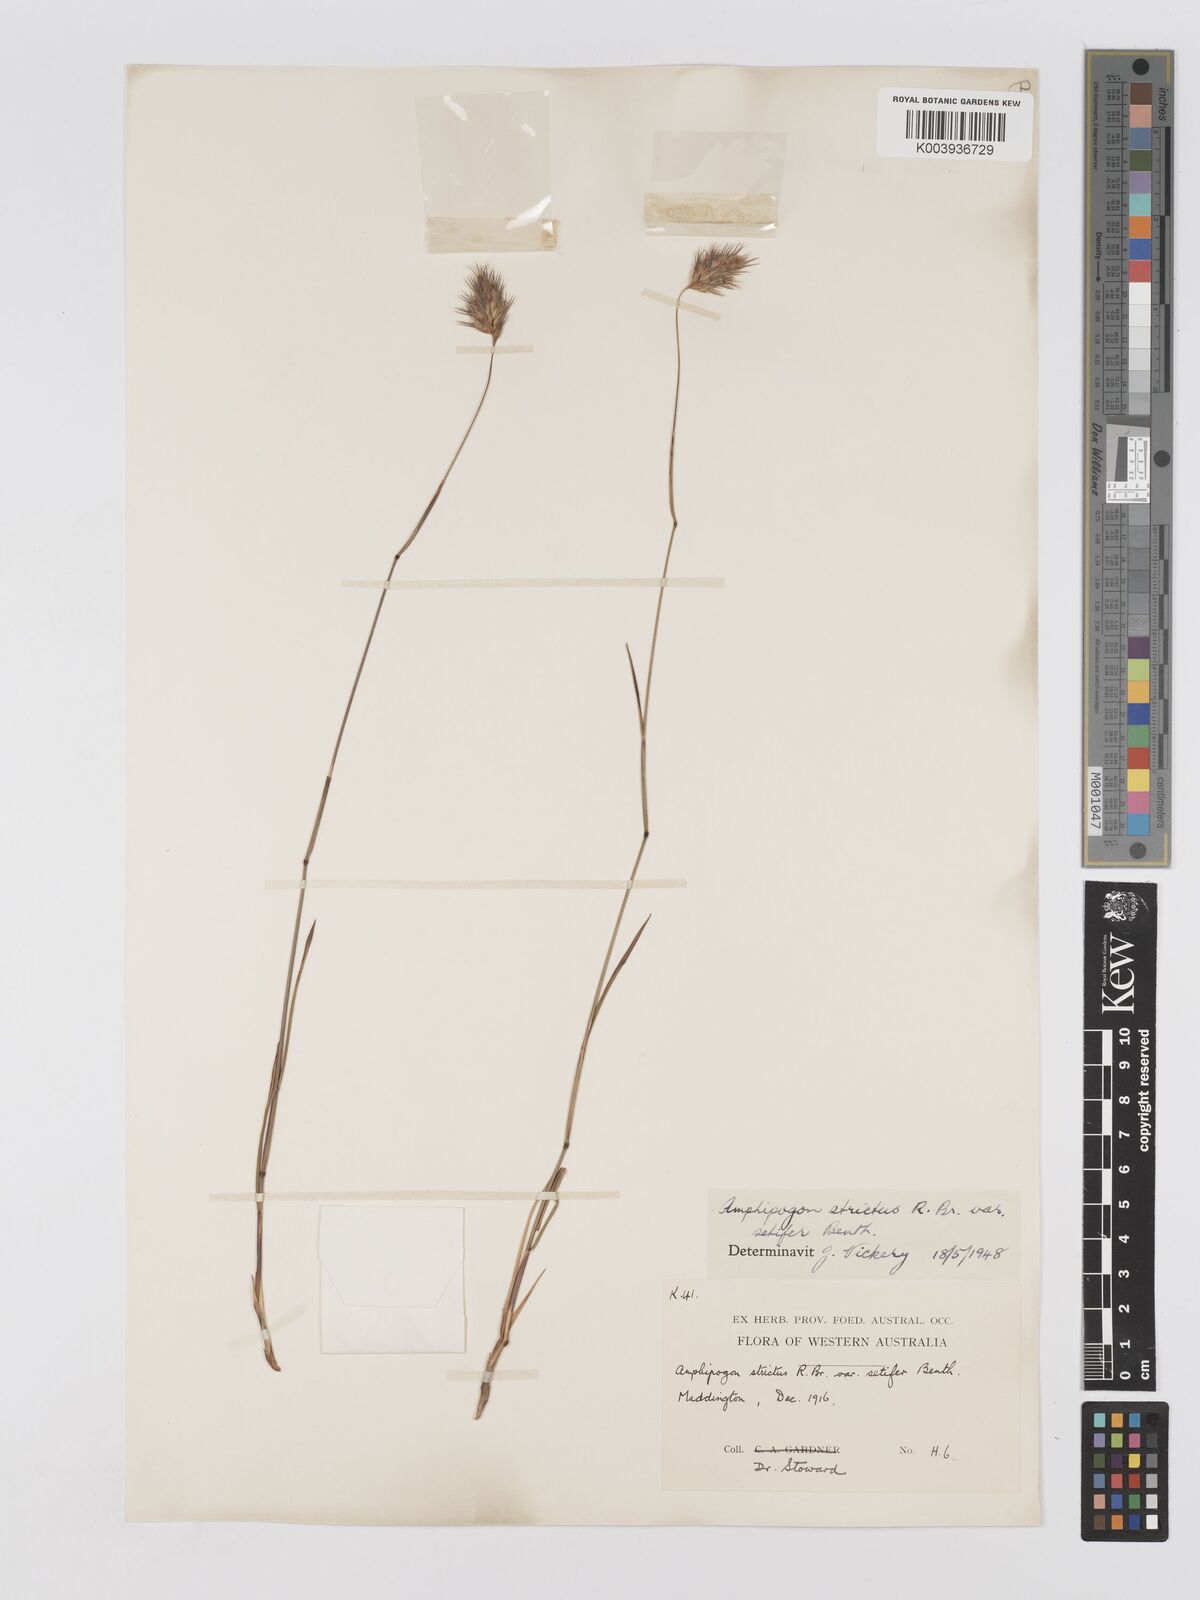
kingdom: Plantae
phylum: Tracheophyta
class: Liliopsida
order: Poales
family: Poaceae
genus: Amphipogon
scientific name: Amphipogon strictus
